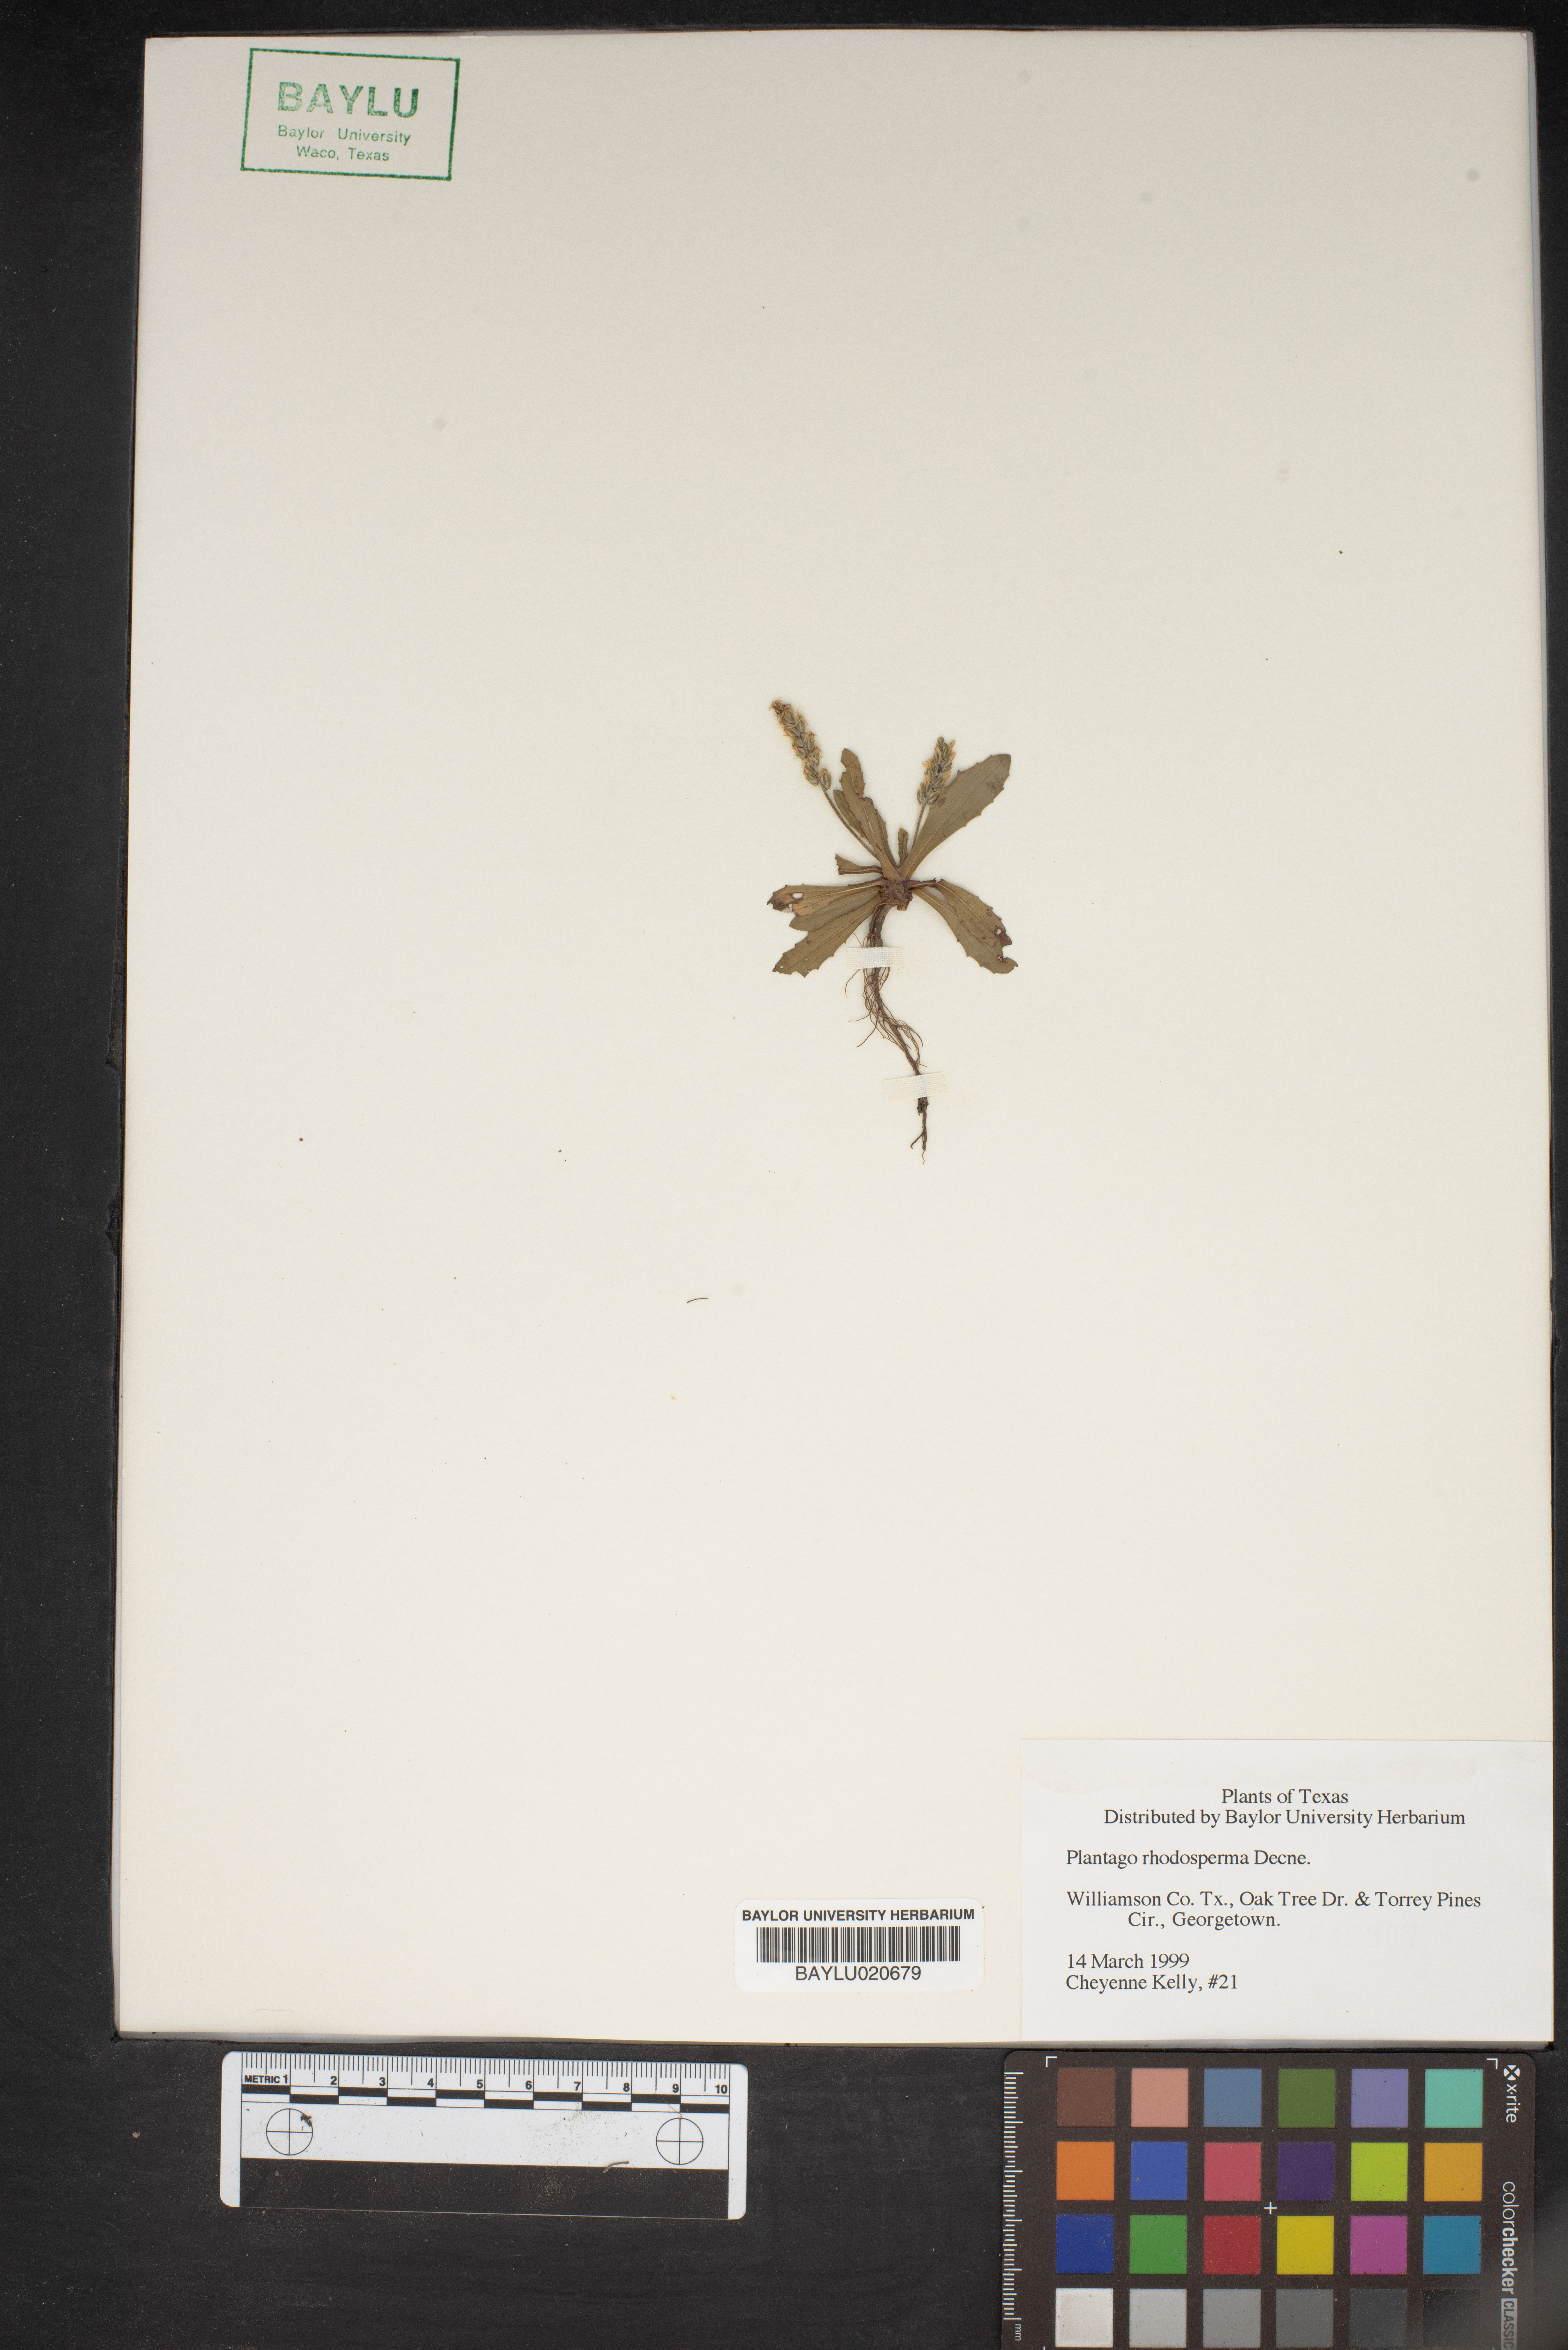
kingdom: Plantae
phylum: Tracheophyta
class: Magnoliopsida
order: Lamiales
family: Plantaginaceae
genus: Plantago
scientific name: Plantago rhodosperma
